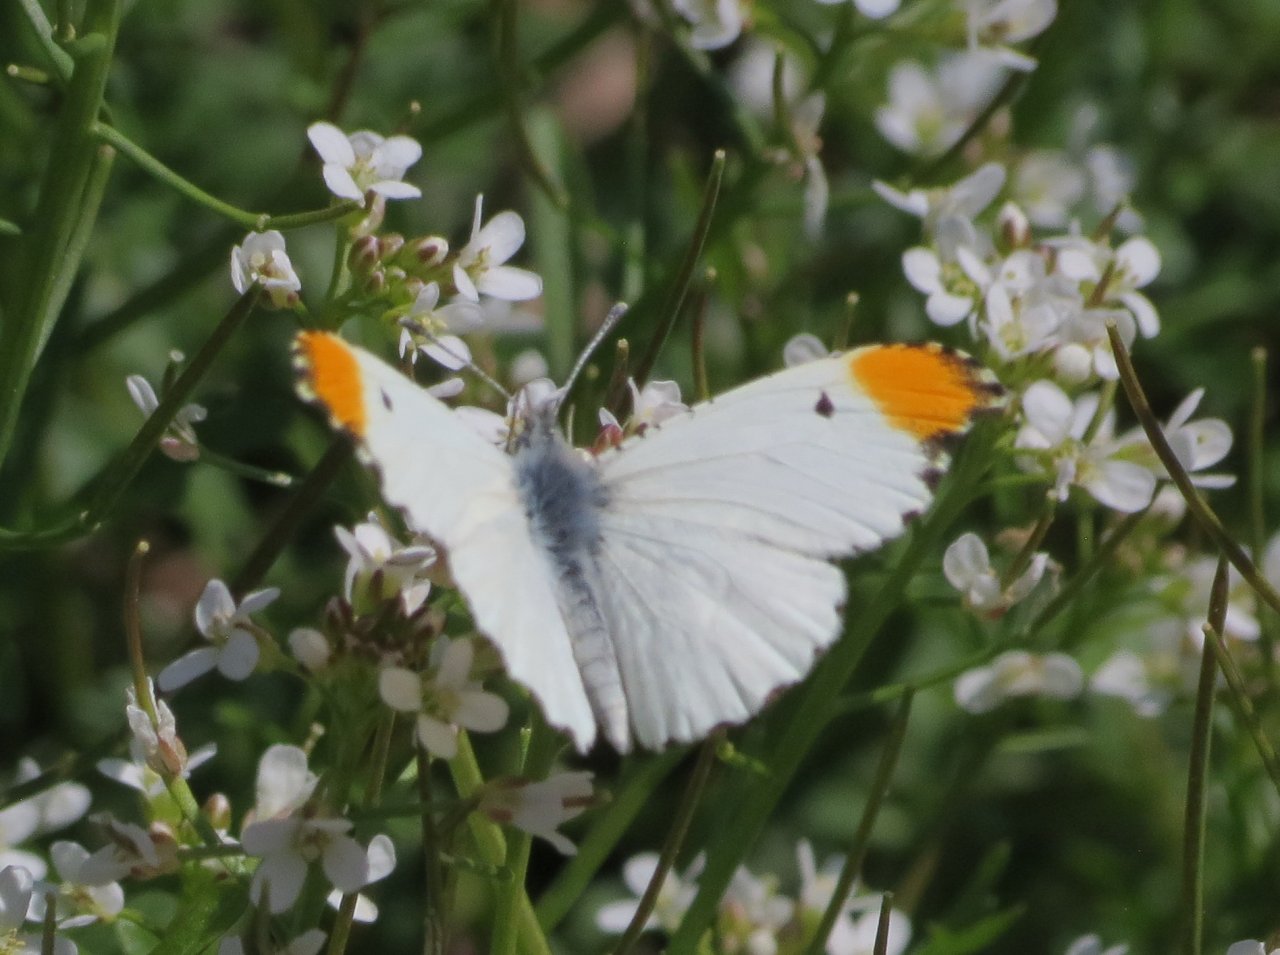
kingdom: Animalia
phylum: Arthropoda
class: Insecta
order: Lepidoptera
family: Pieridae
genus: Anthocharis
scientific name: Anthocharis midea
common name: Falcate Orangetip
